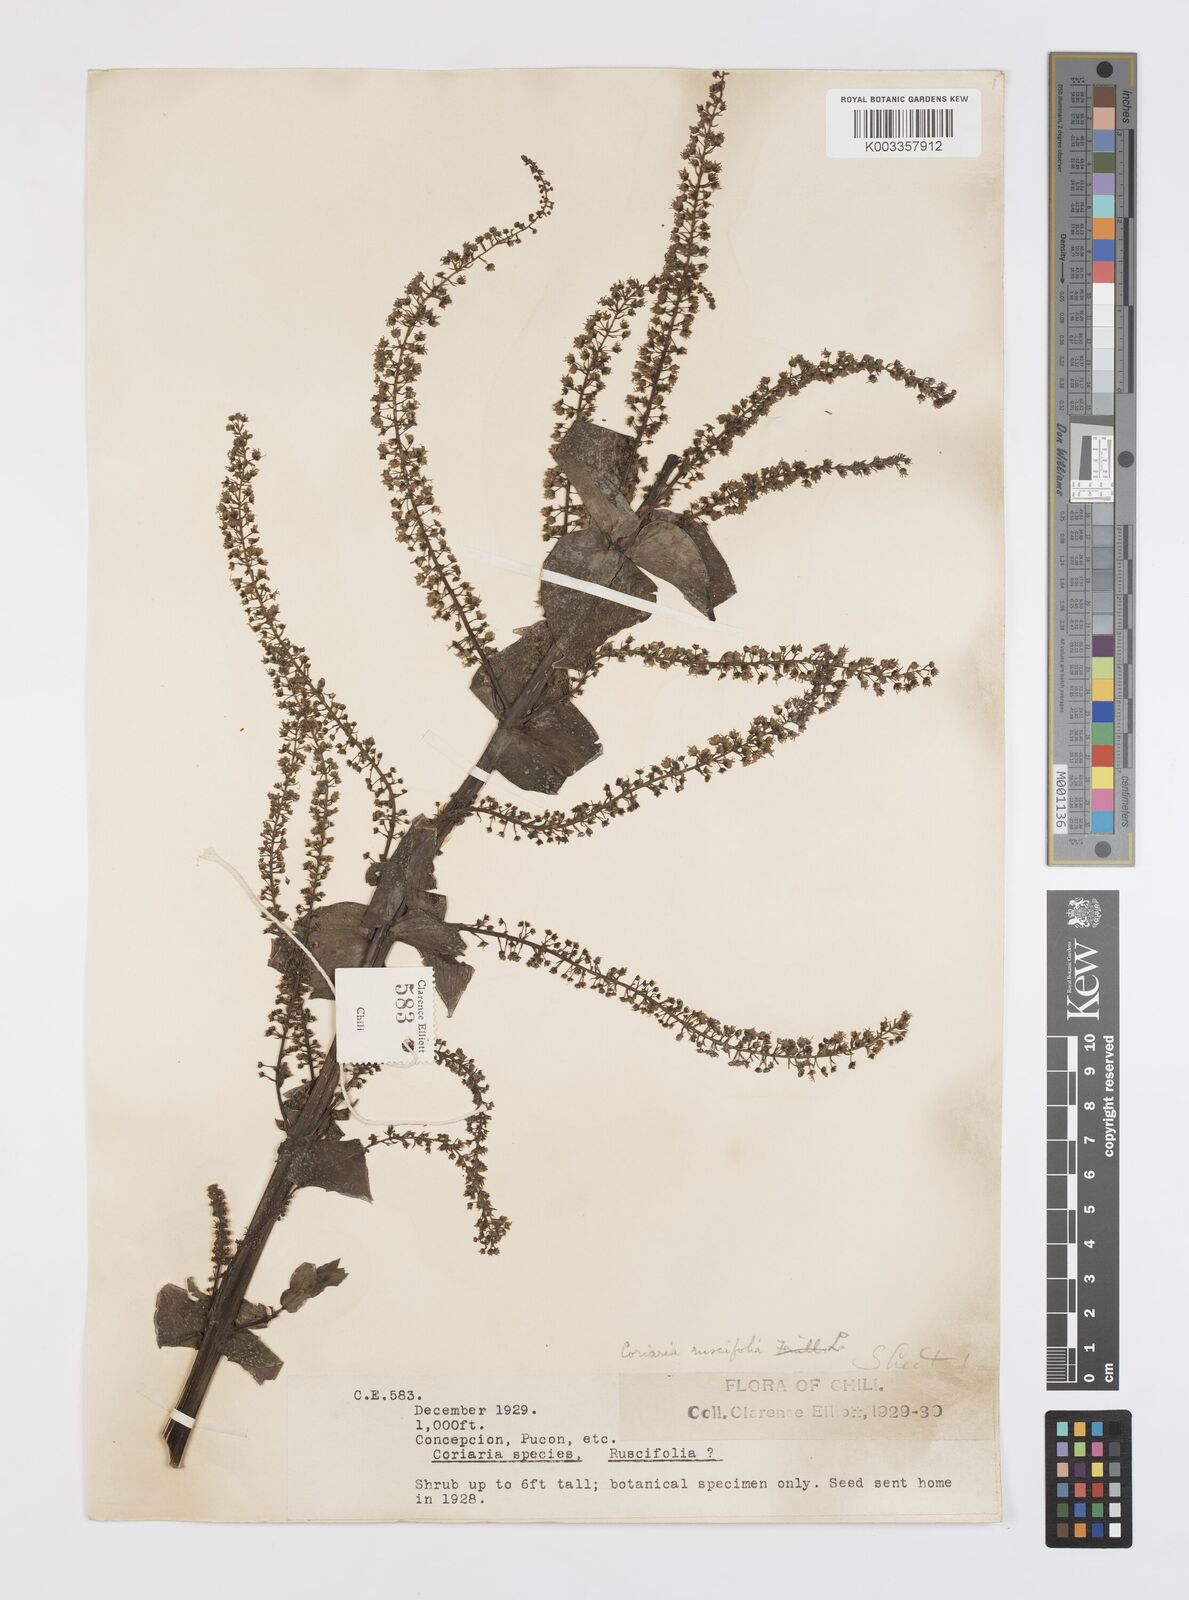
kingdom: Plantae
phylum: Tracheophyta
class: Magnoliopsida
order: Cucurbitales
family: Coriariaceae
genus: Coriaria
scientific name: Coriaria ruscifolia
